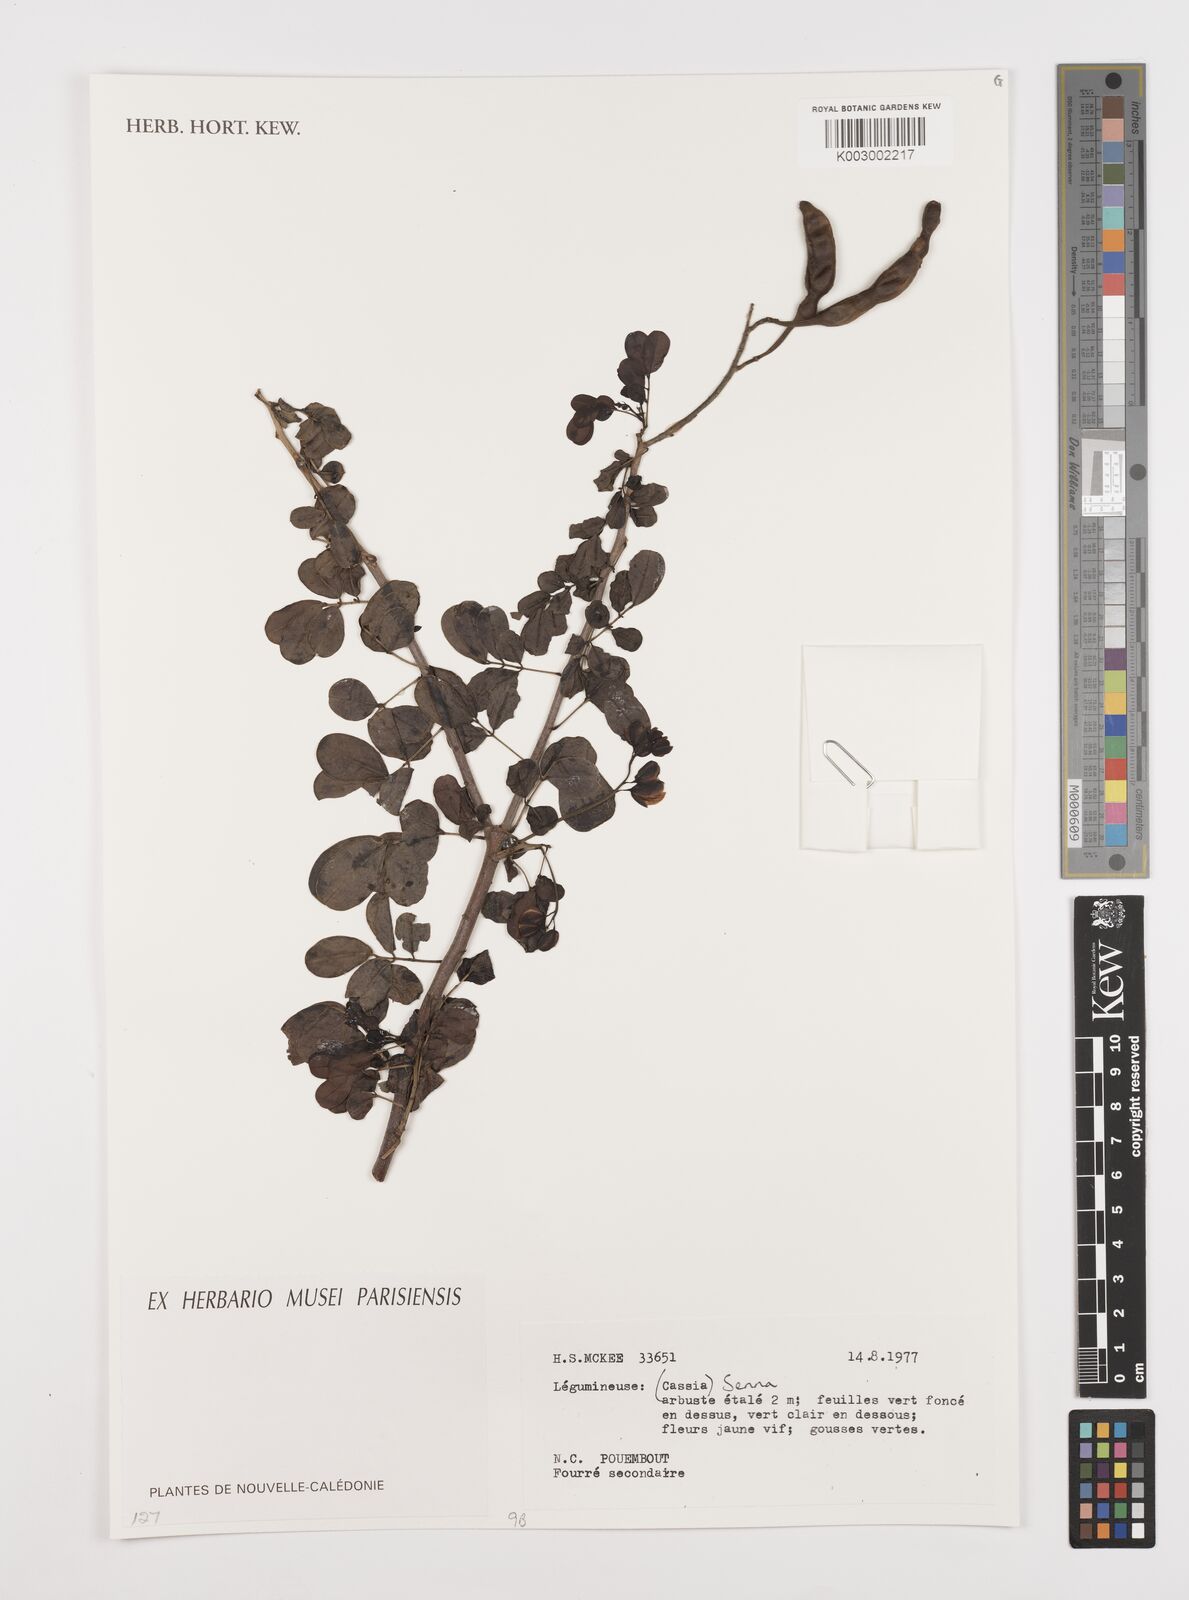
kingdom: Plantae
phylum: Tracheophyta
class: Magnoliopsida
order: Fabales
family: Fabaceae
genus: Cassia
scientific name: Cassia
